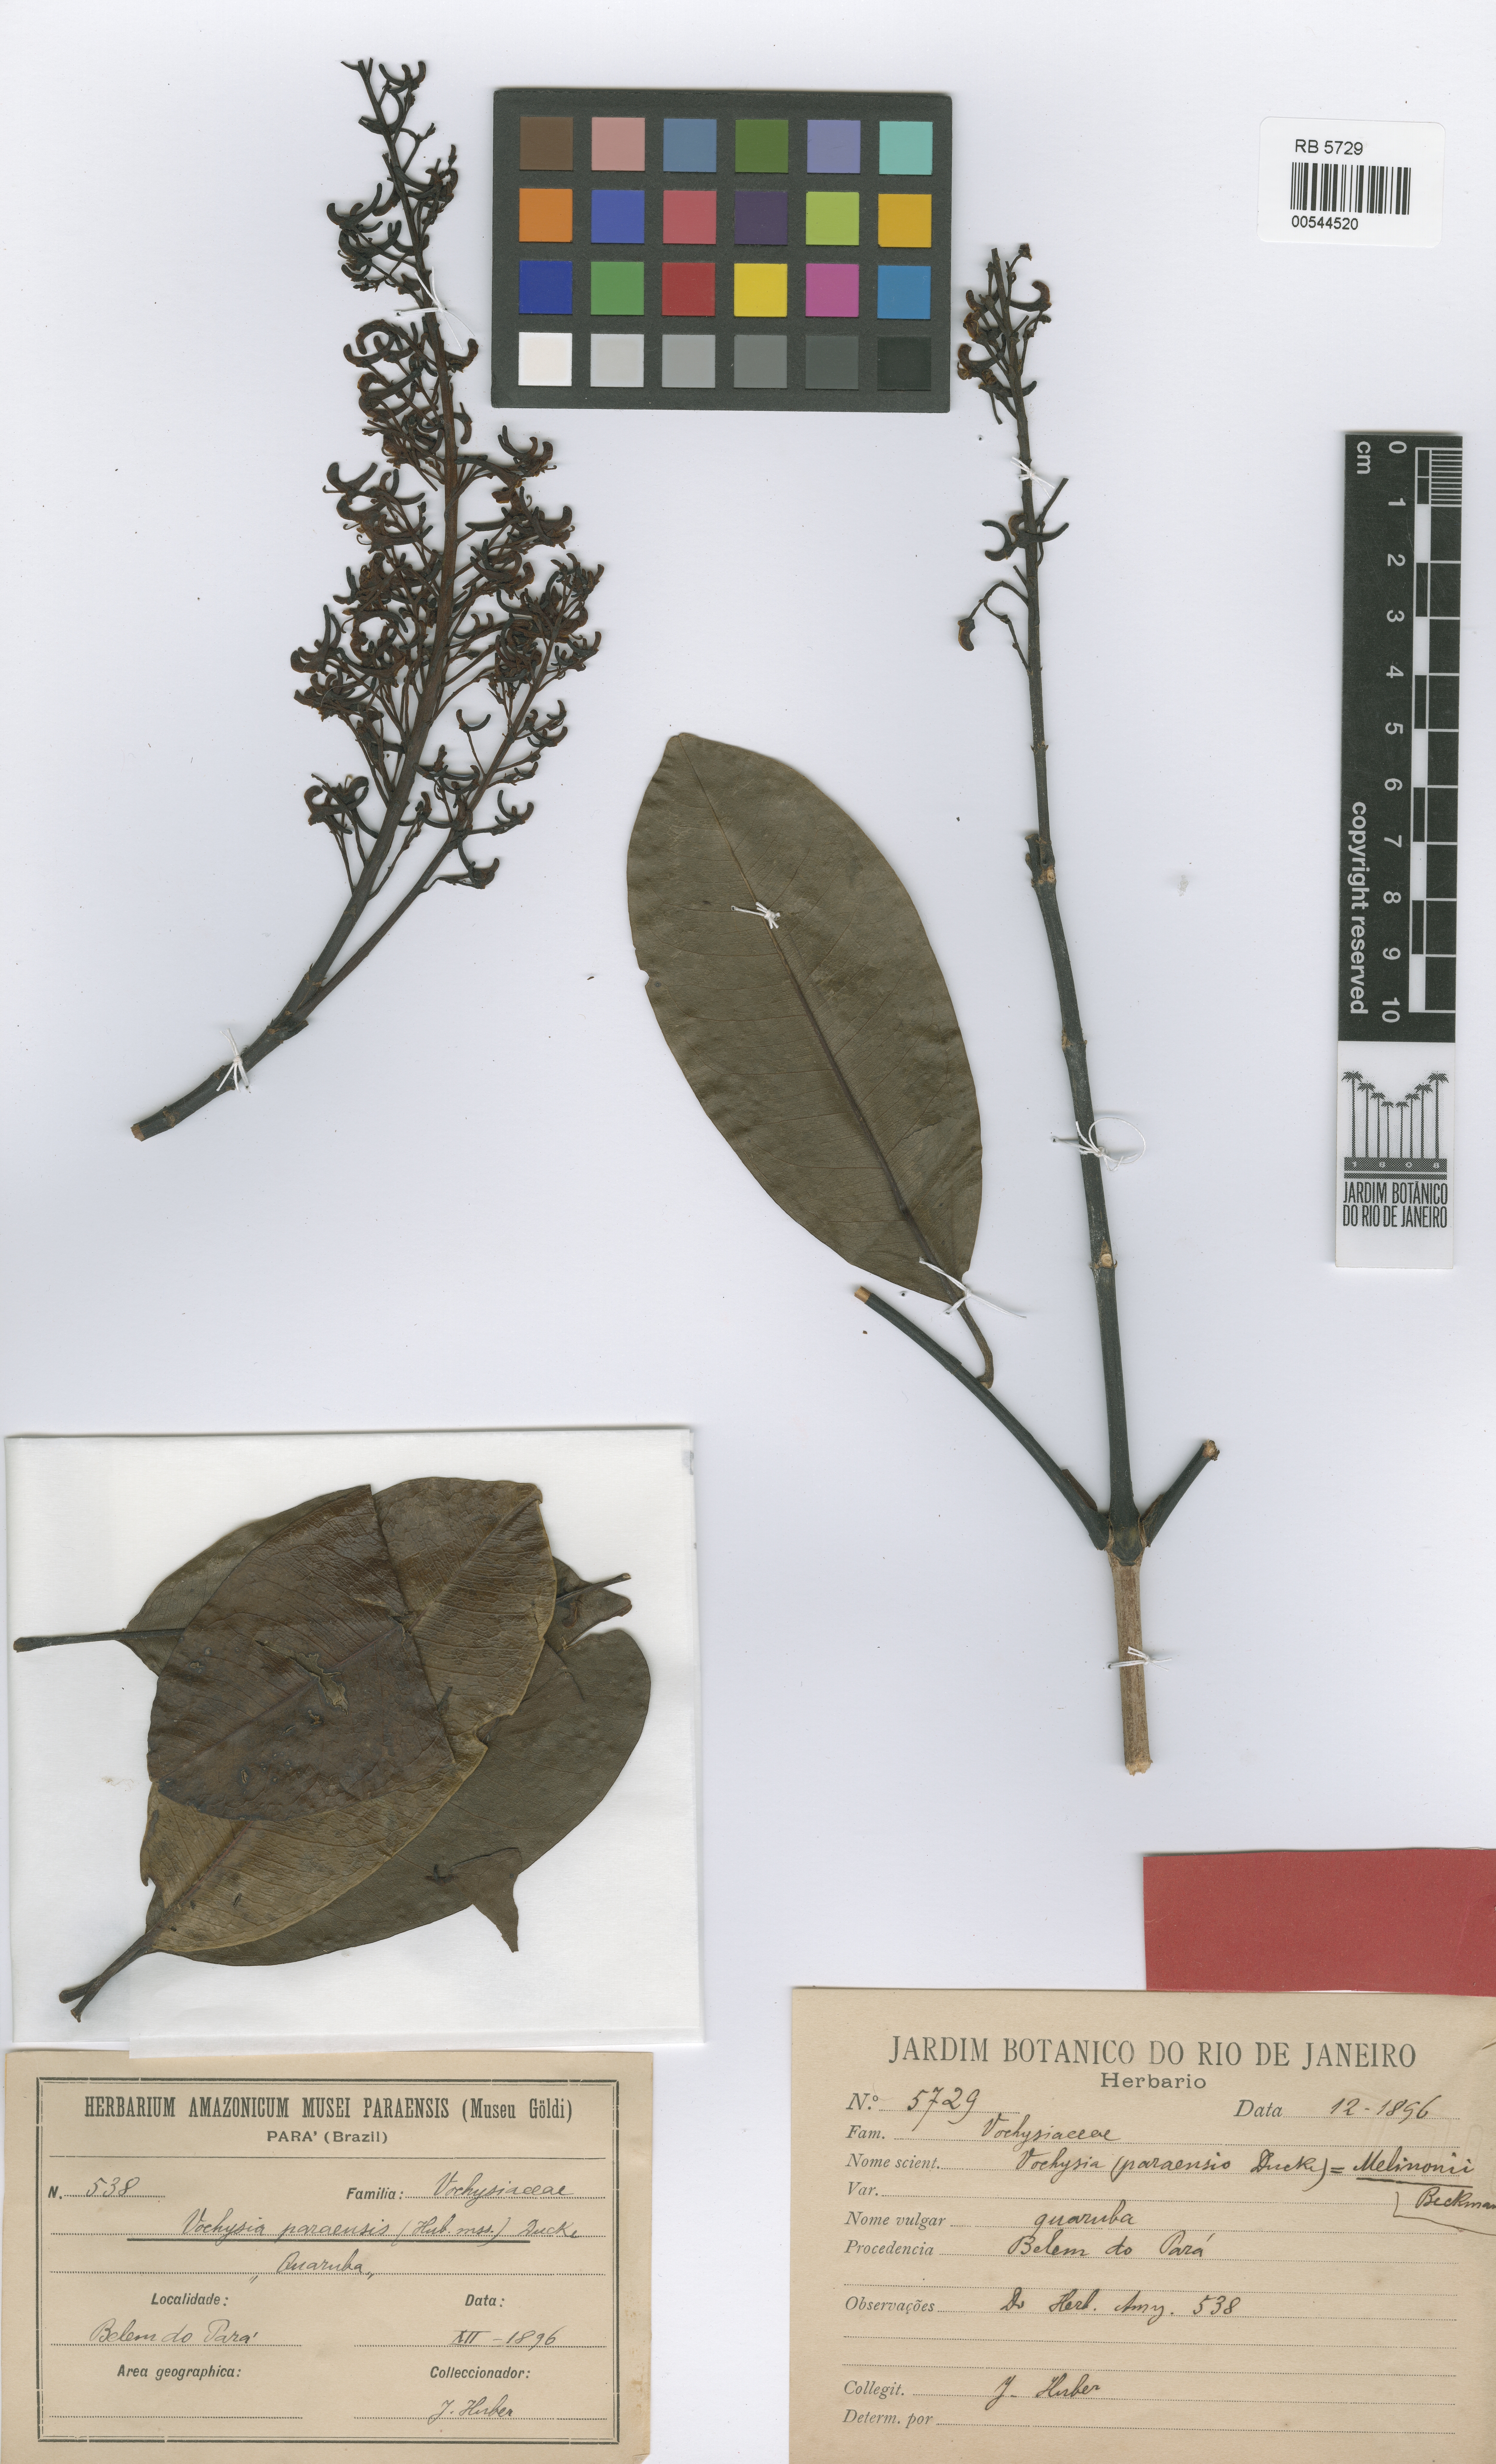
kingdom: Plantae
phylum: Tracheophyta
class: Magnoliopsida
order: Myrtales
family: Vochysiaceae
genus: Vochysia
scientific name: Vochysia guianensis
